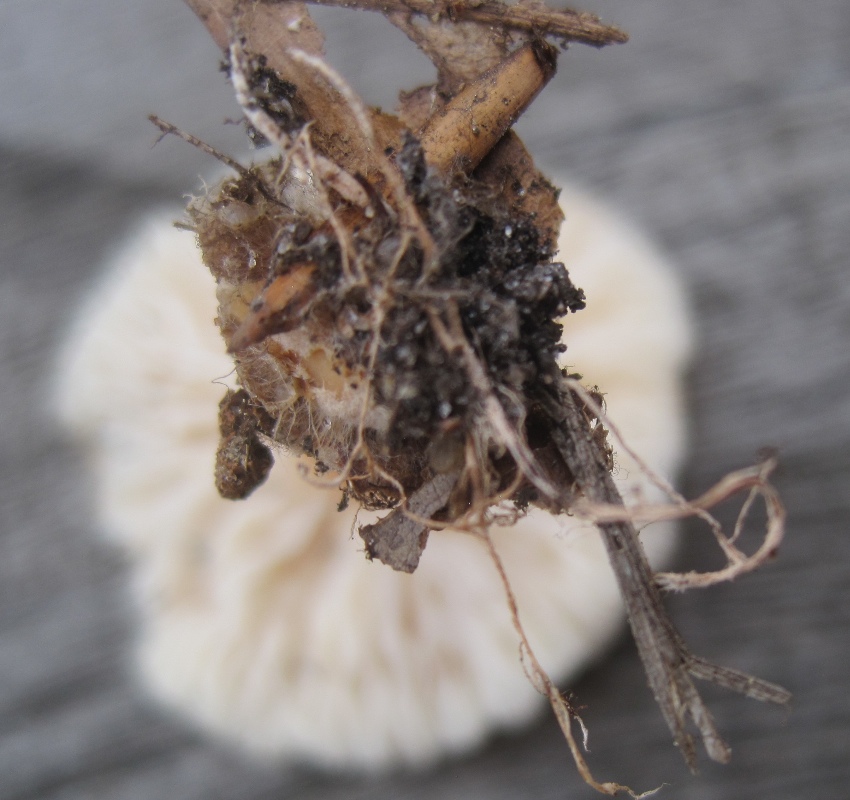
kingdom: Fungi
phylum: Basidiomycota
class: Agaricomycetes
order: Agaricales
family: Omphalotaceae
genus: Gymnopus
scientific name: Gymnopus aquosus
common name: bleg fladhat
